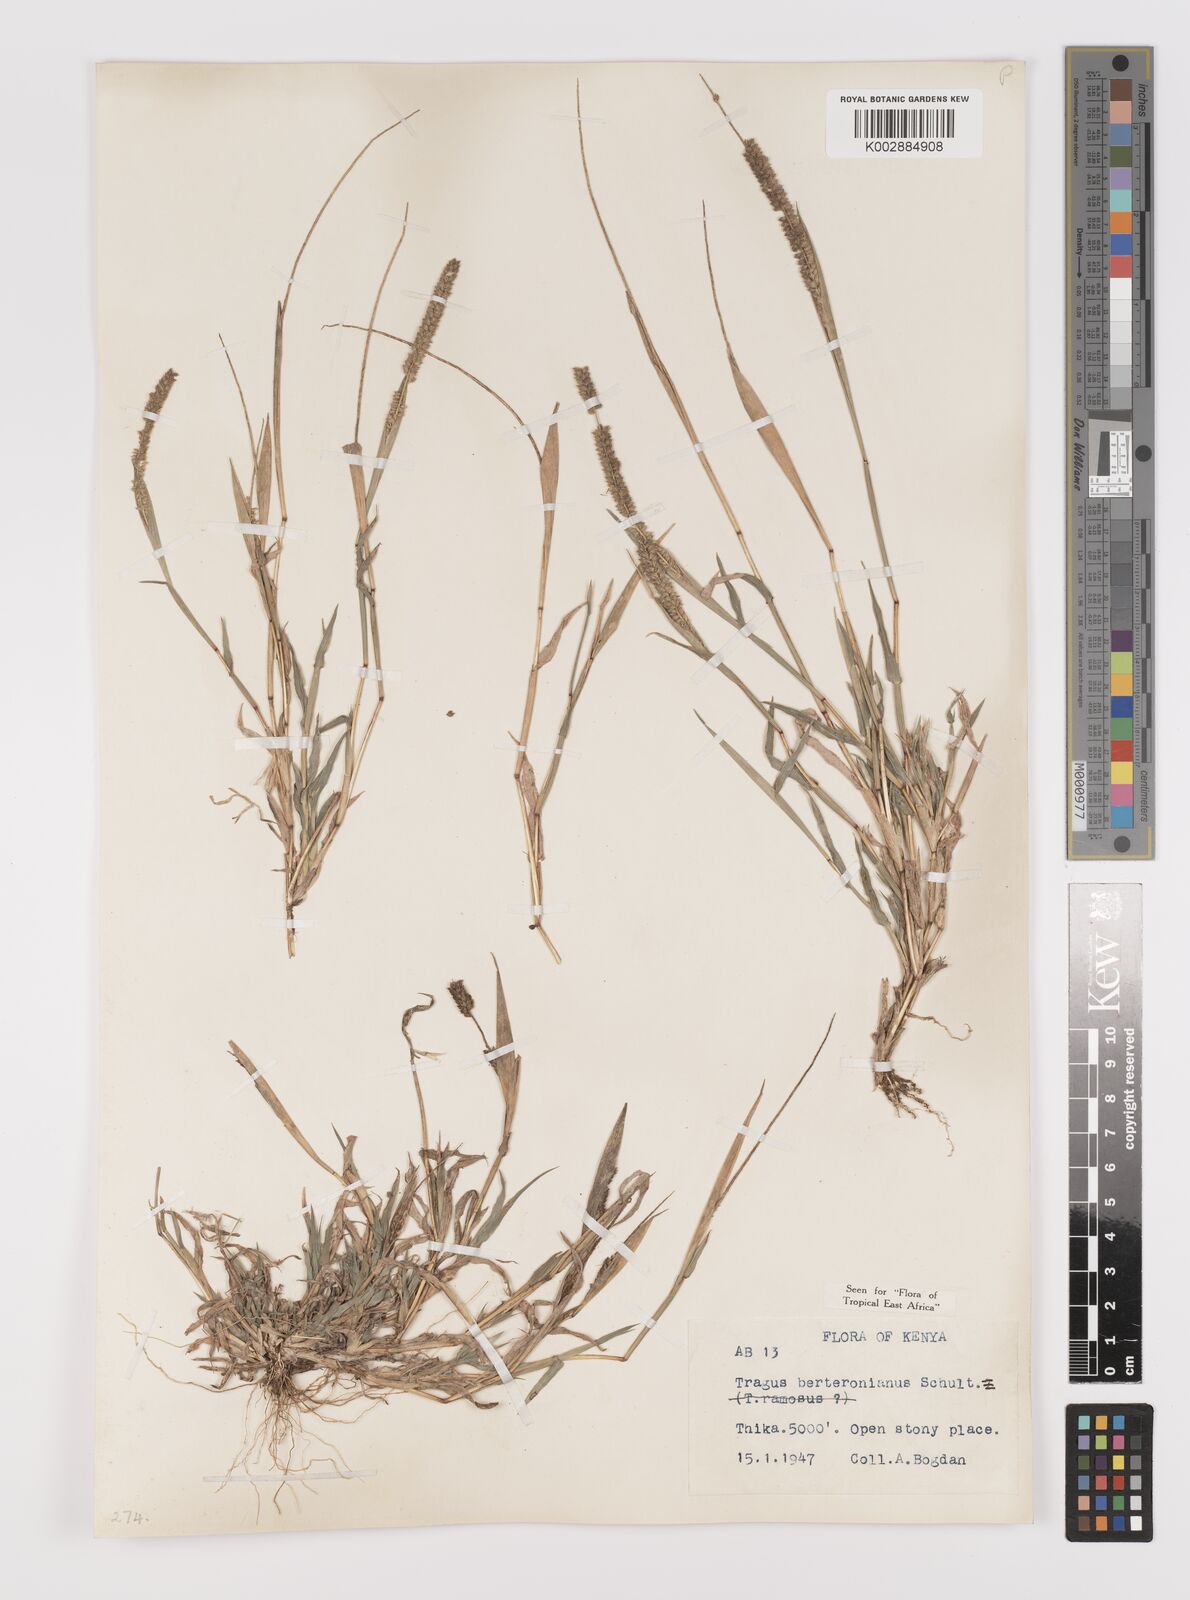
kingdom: Plantae
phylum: Tracheophyta
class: Liliopsida
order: Poales
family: Poaceae
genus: Tragus
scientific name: Tragus berteronianus
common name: African bur-grass
